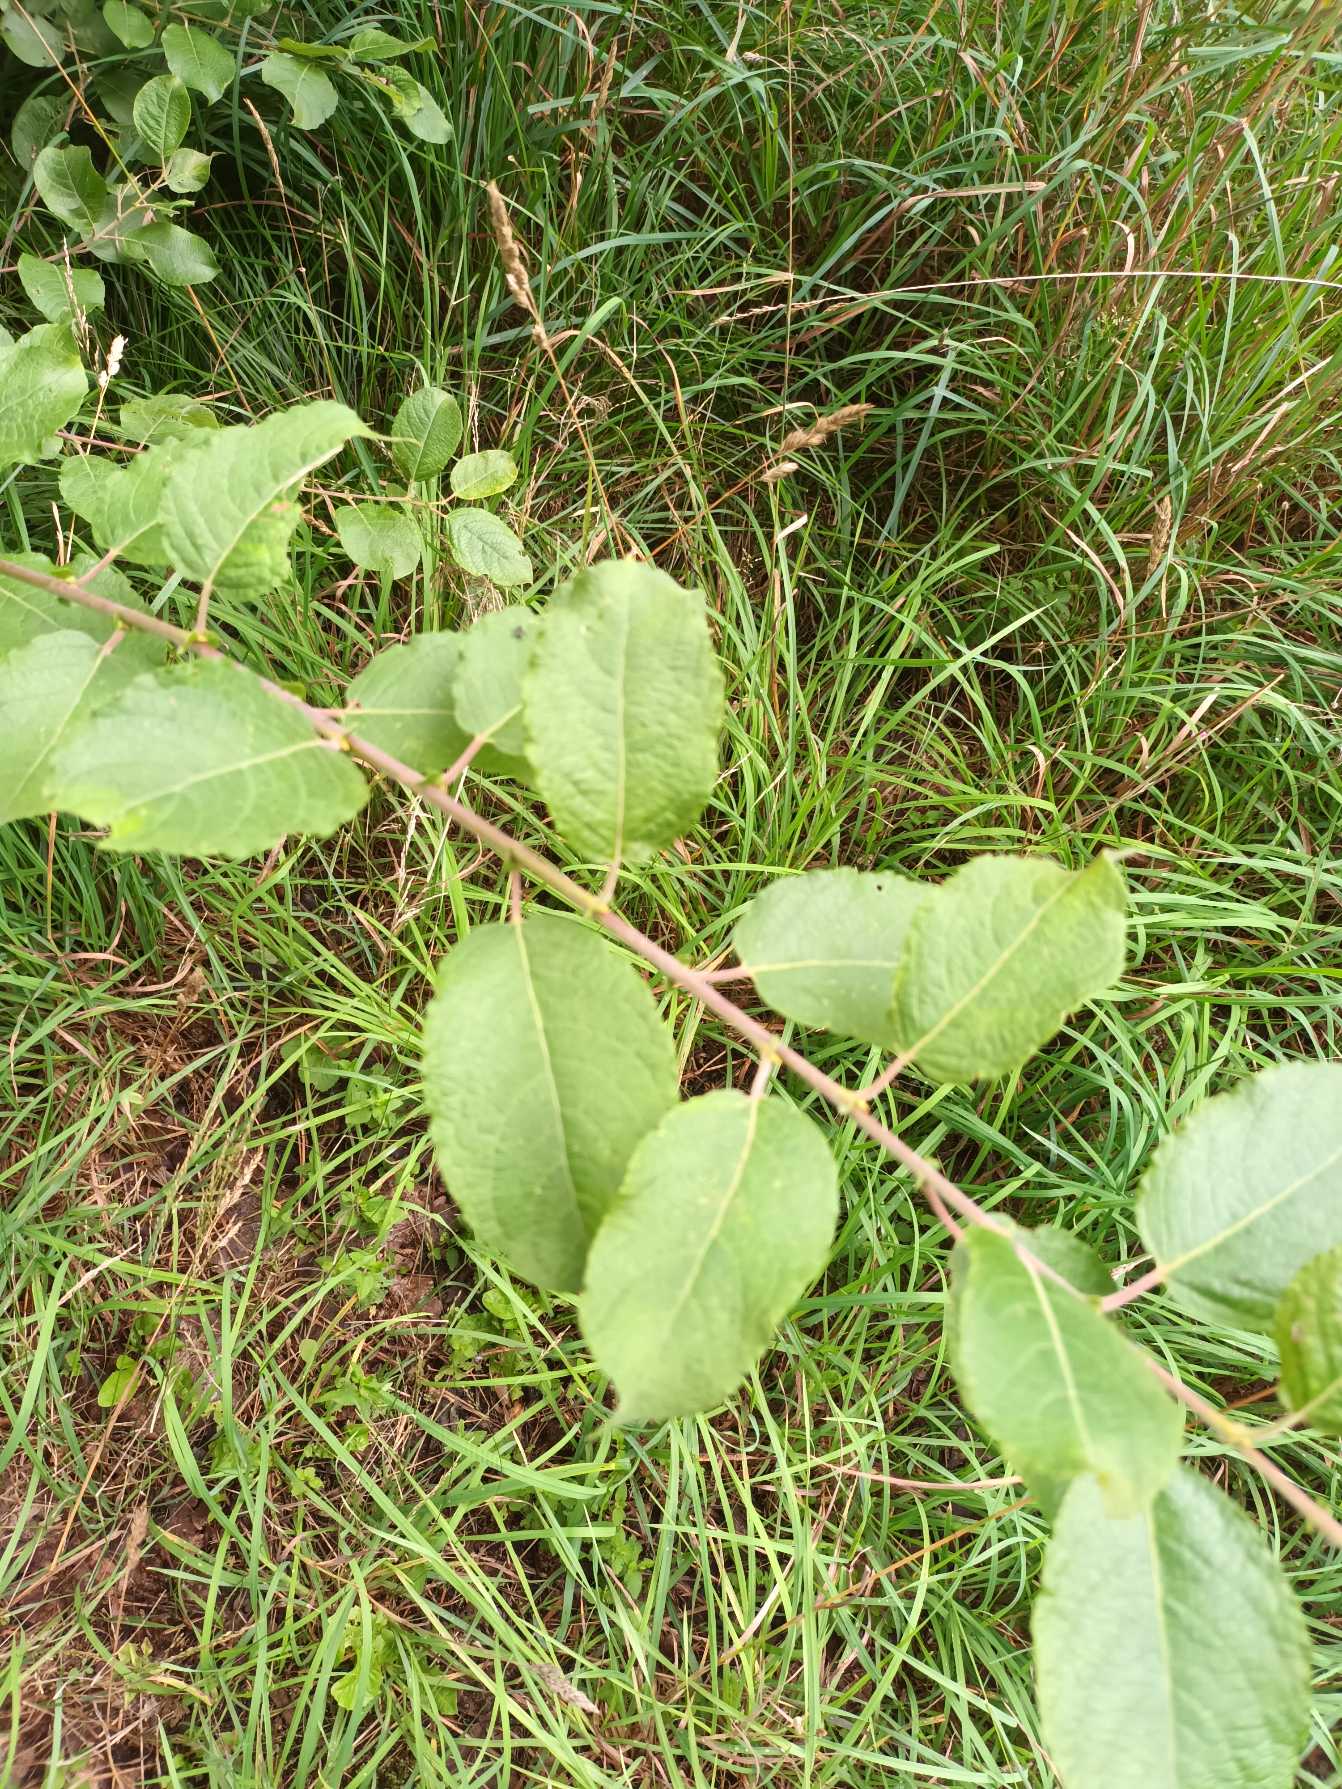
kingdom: Plantae
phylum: Tracheophyta
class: Magnoliopsida
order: Malpighiales
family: Salicaceae
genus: Salix
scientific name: Salix caprea
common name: Selje-pil
